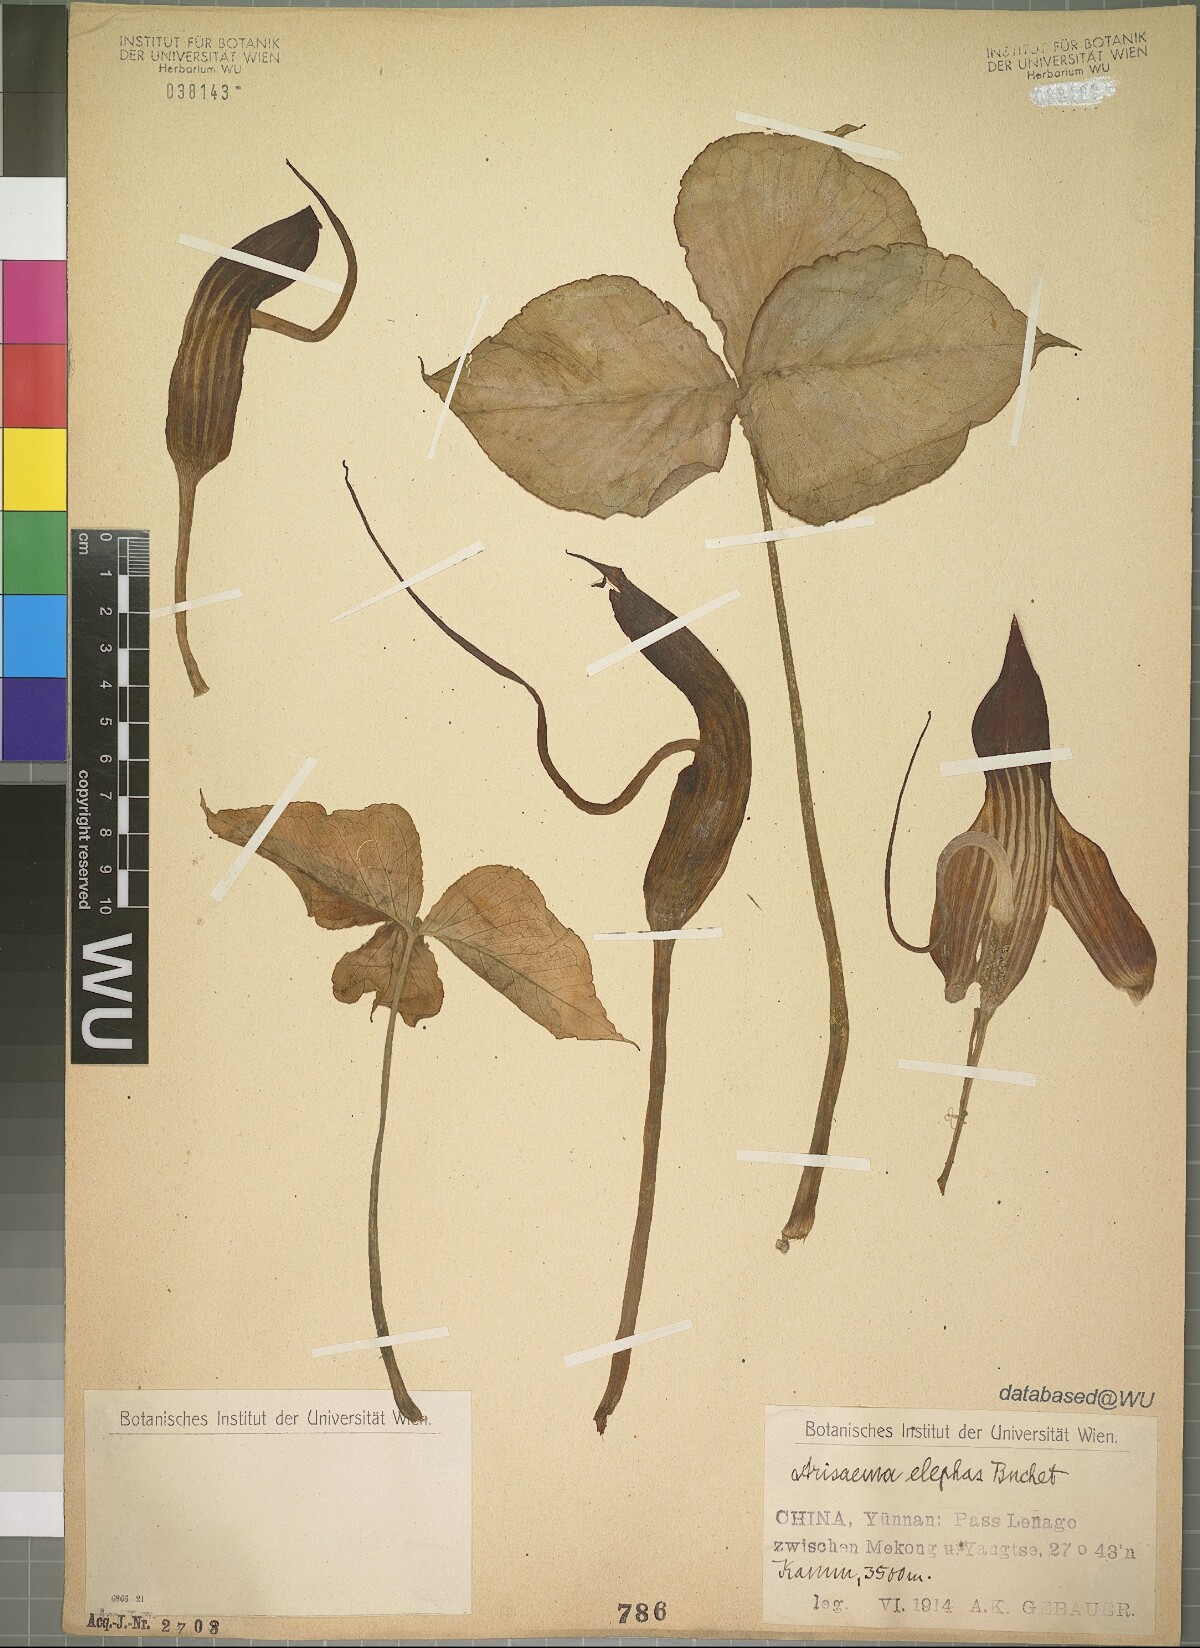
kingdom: Plantae
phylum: Tracheophyta
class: Liliopsida
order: Alismatales
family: Araceae
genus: Arisaema
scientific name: Arisaema elephas
